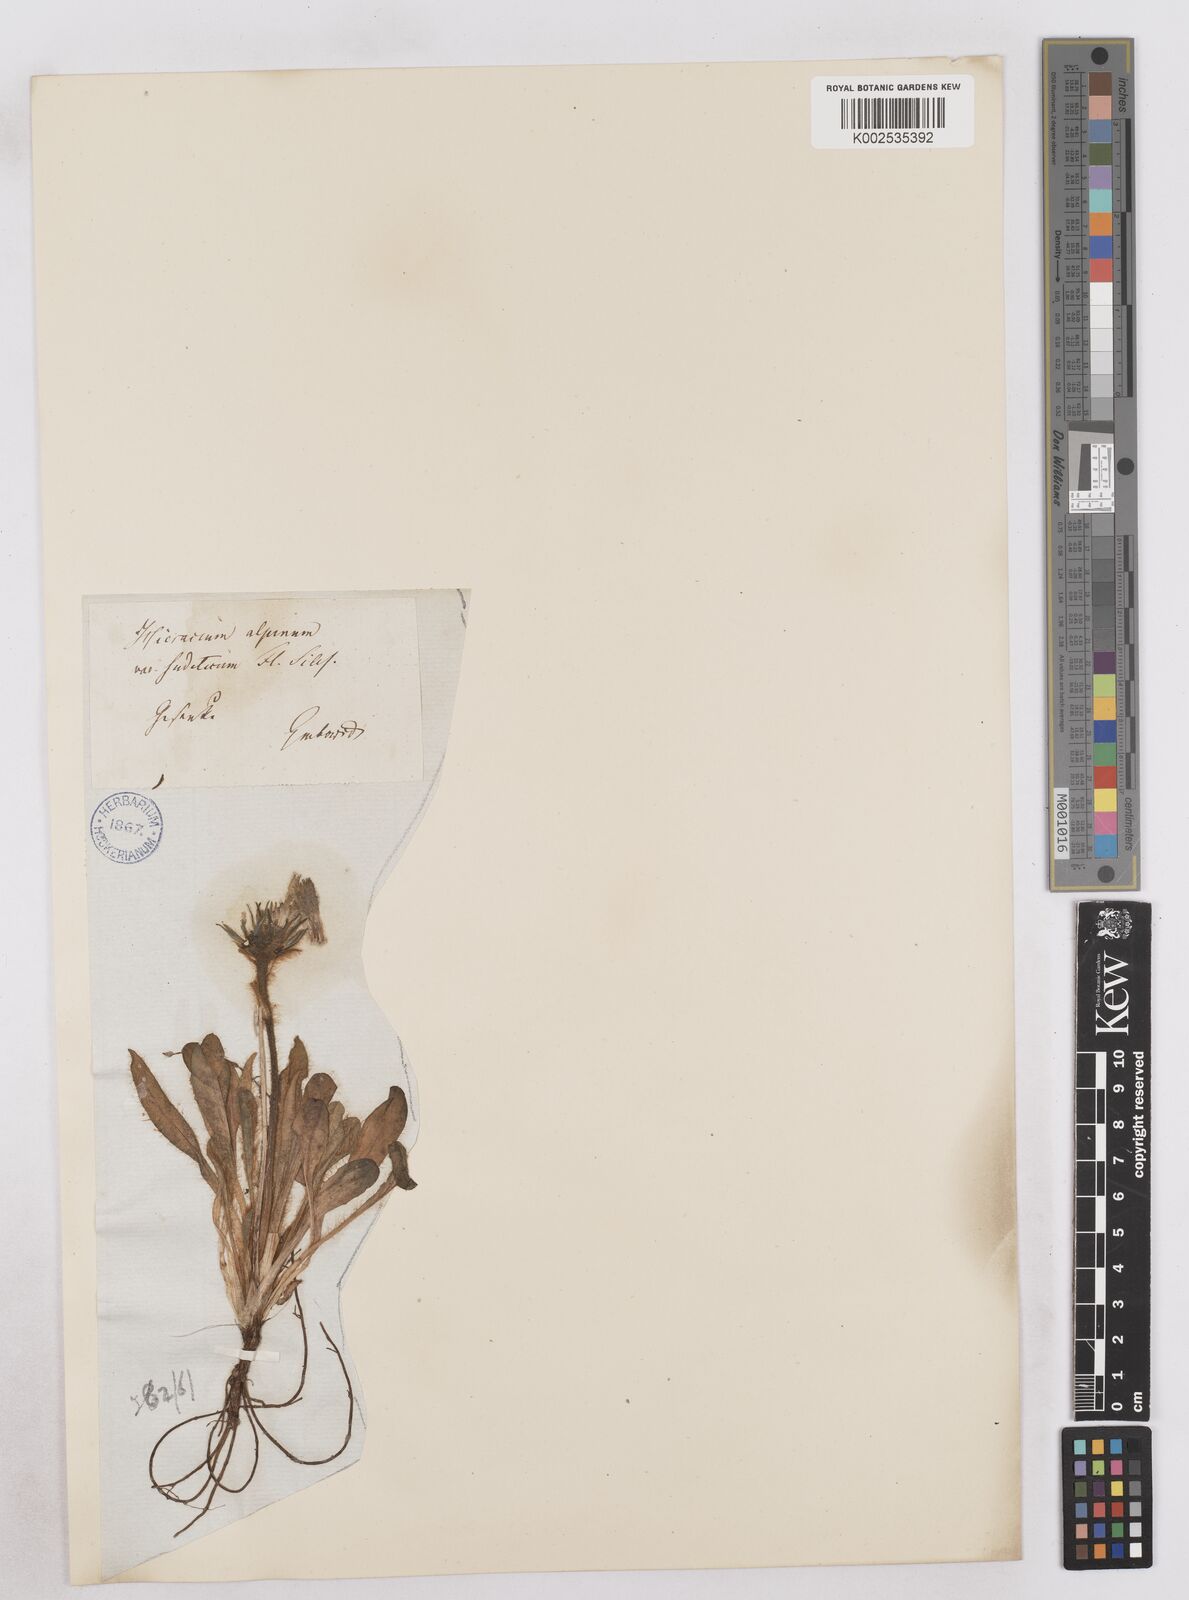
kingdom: Plantae
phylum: Tracheophyta
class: Magnoliopsida
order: Asterales
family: Asteraceae
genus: Hieracium
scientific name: Hieracium fritzei
